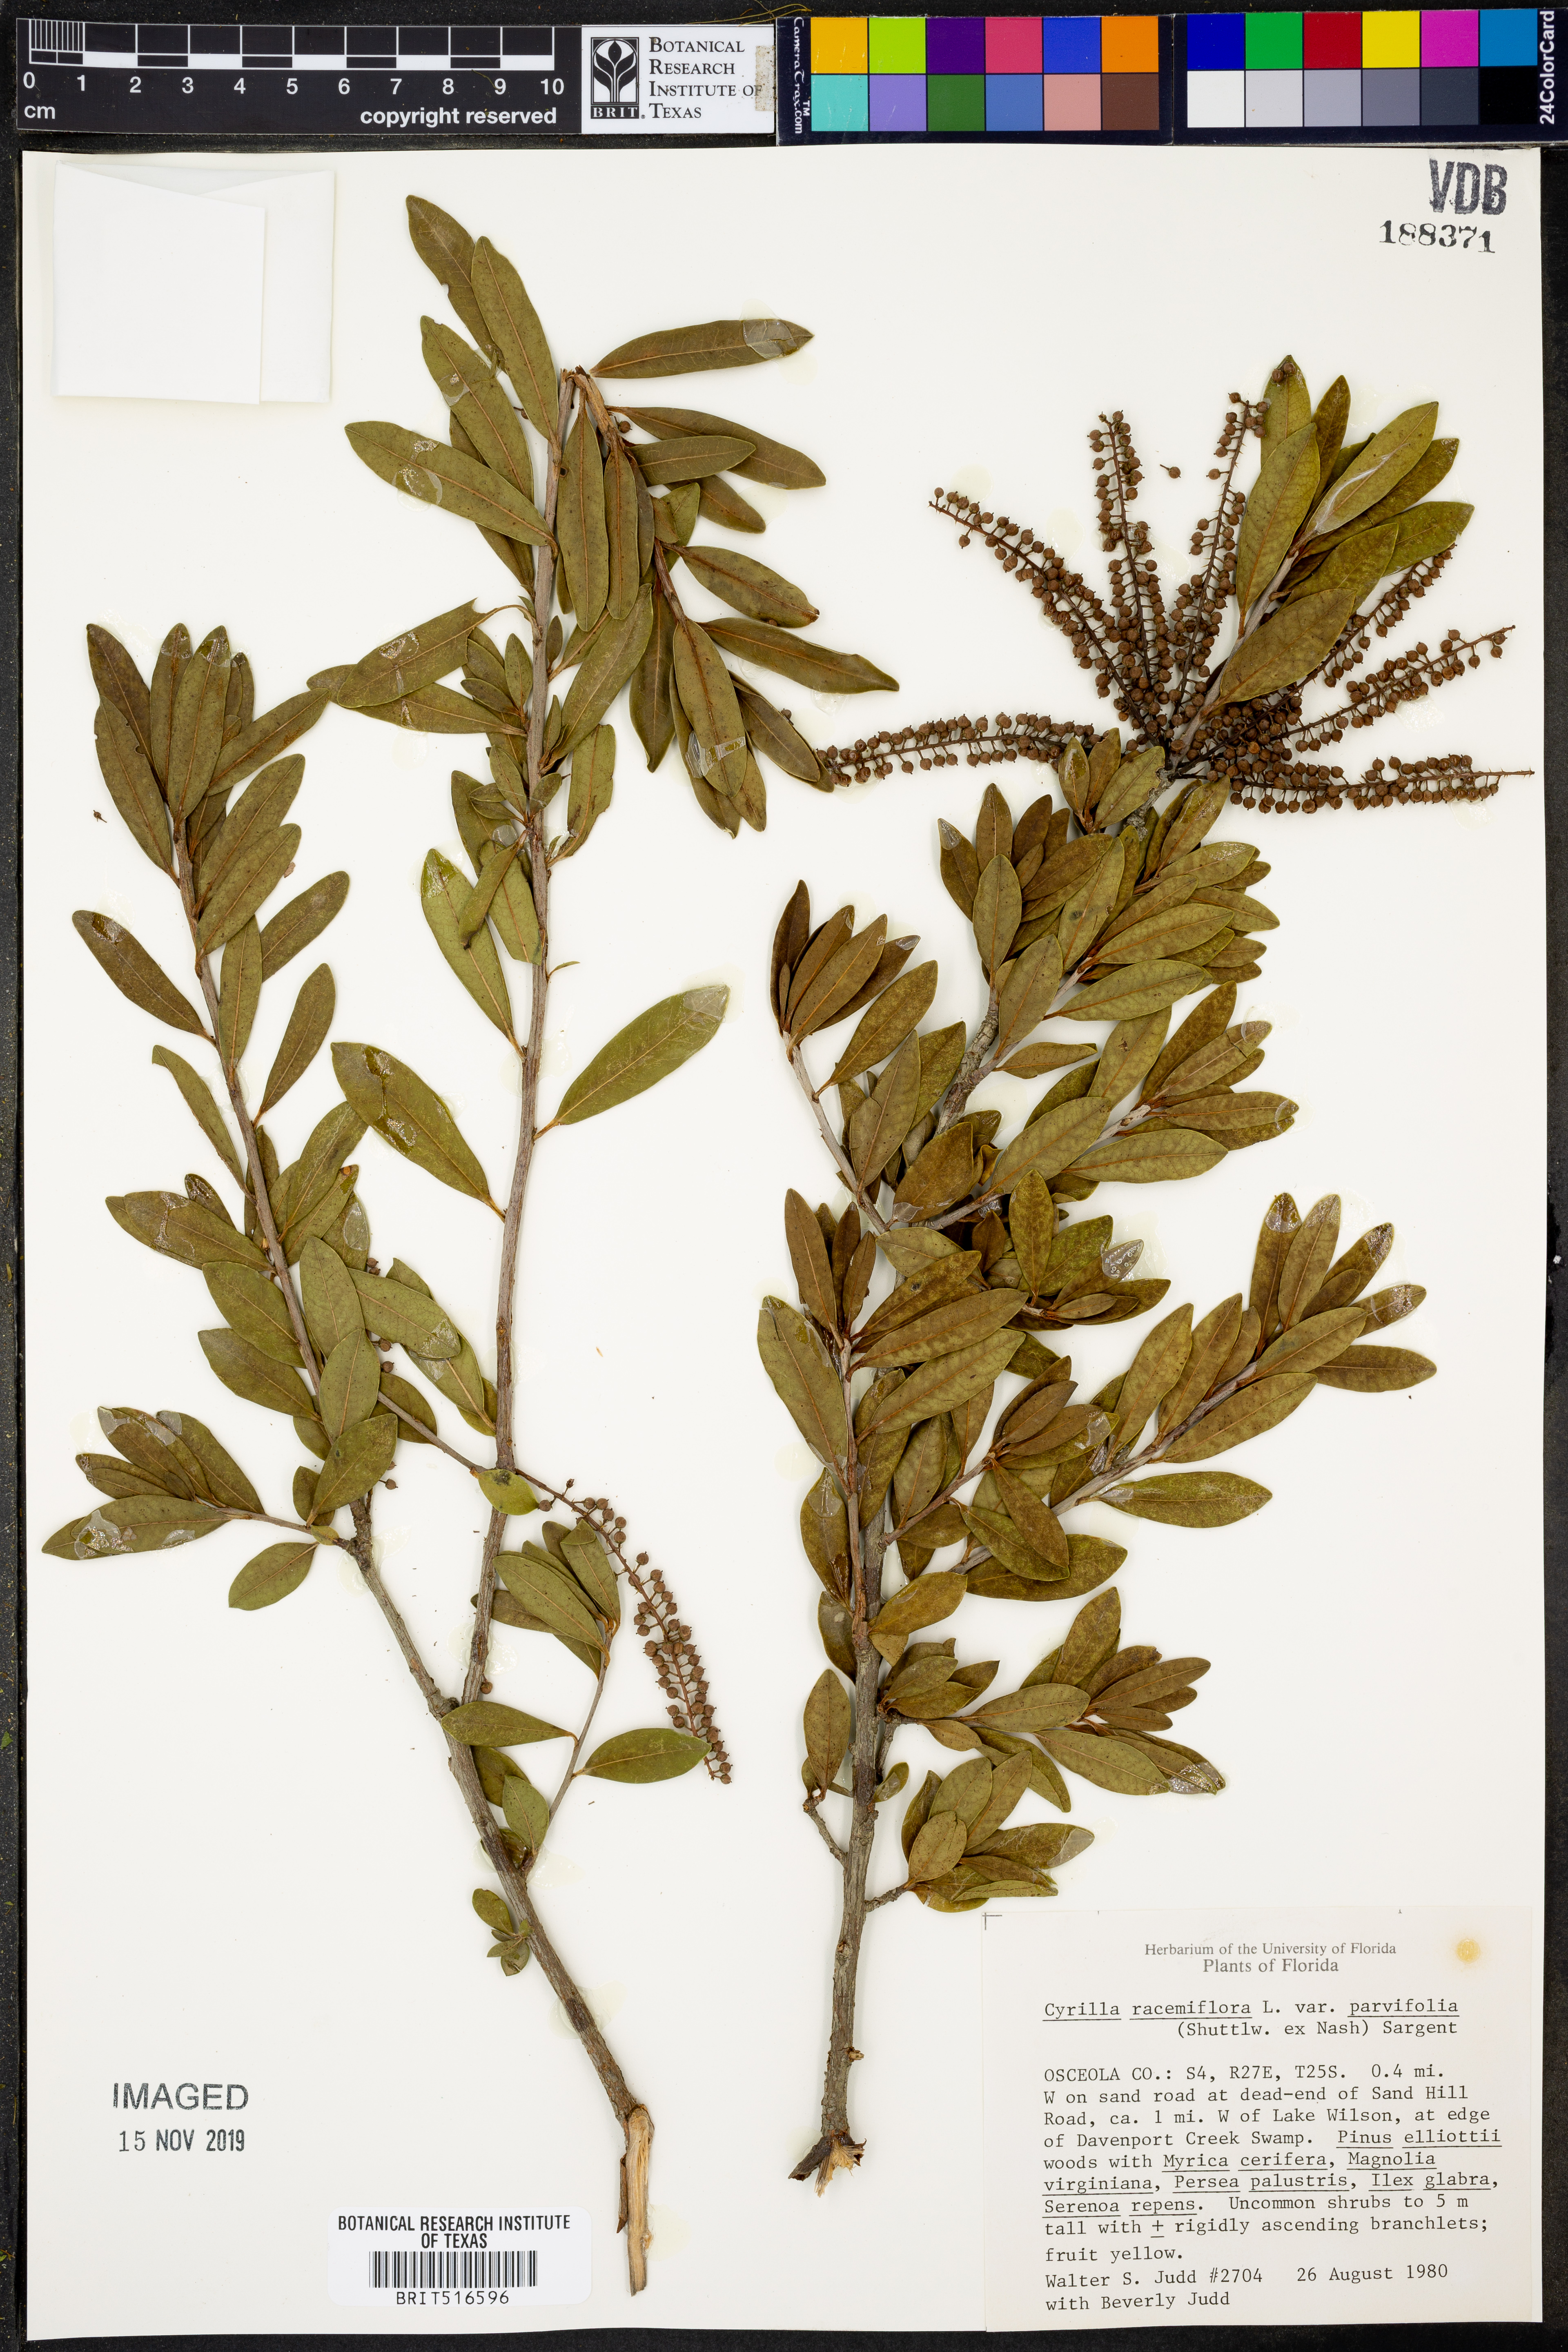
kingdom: Plantae
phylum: Tracheophyta
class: Magnoliopsida
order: Ericales
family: Cyrillaceae
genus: Cyrilla
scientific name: Cyrilla racemiflora
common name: Black titi
